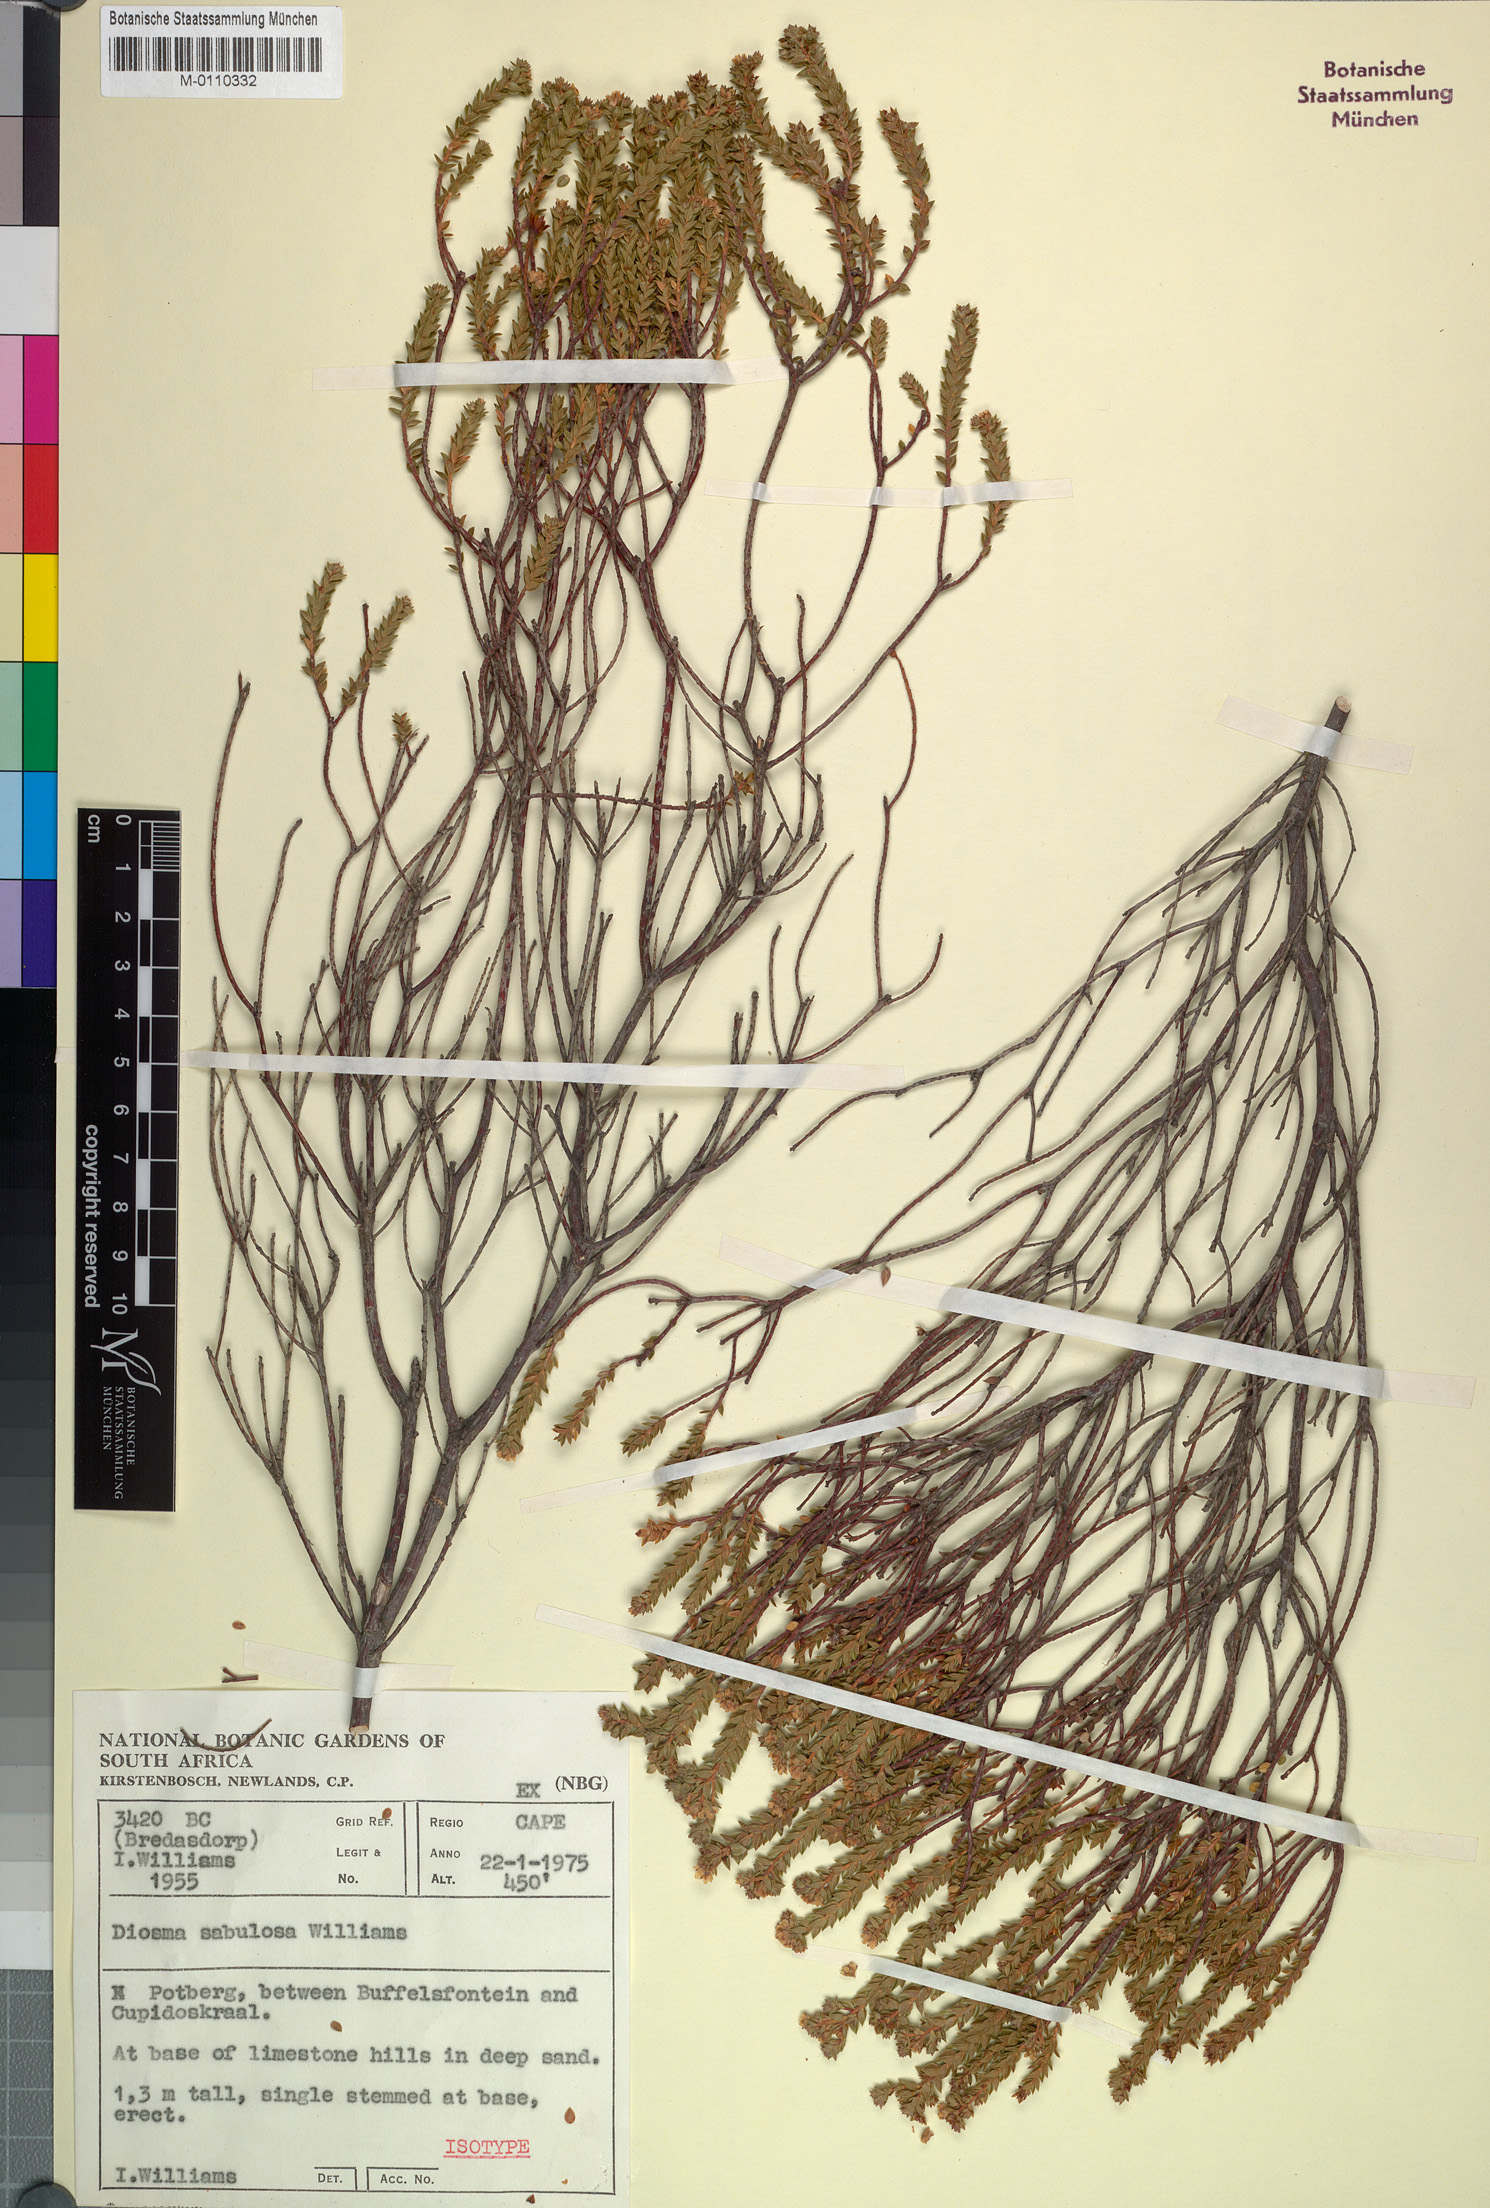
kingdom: Plantae
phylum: Tracheophyta
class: Magnoliopsida
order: Sapindales
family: Rutaceae
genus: Diosma
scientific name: Diosma sabulosa
